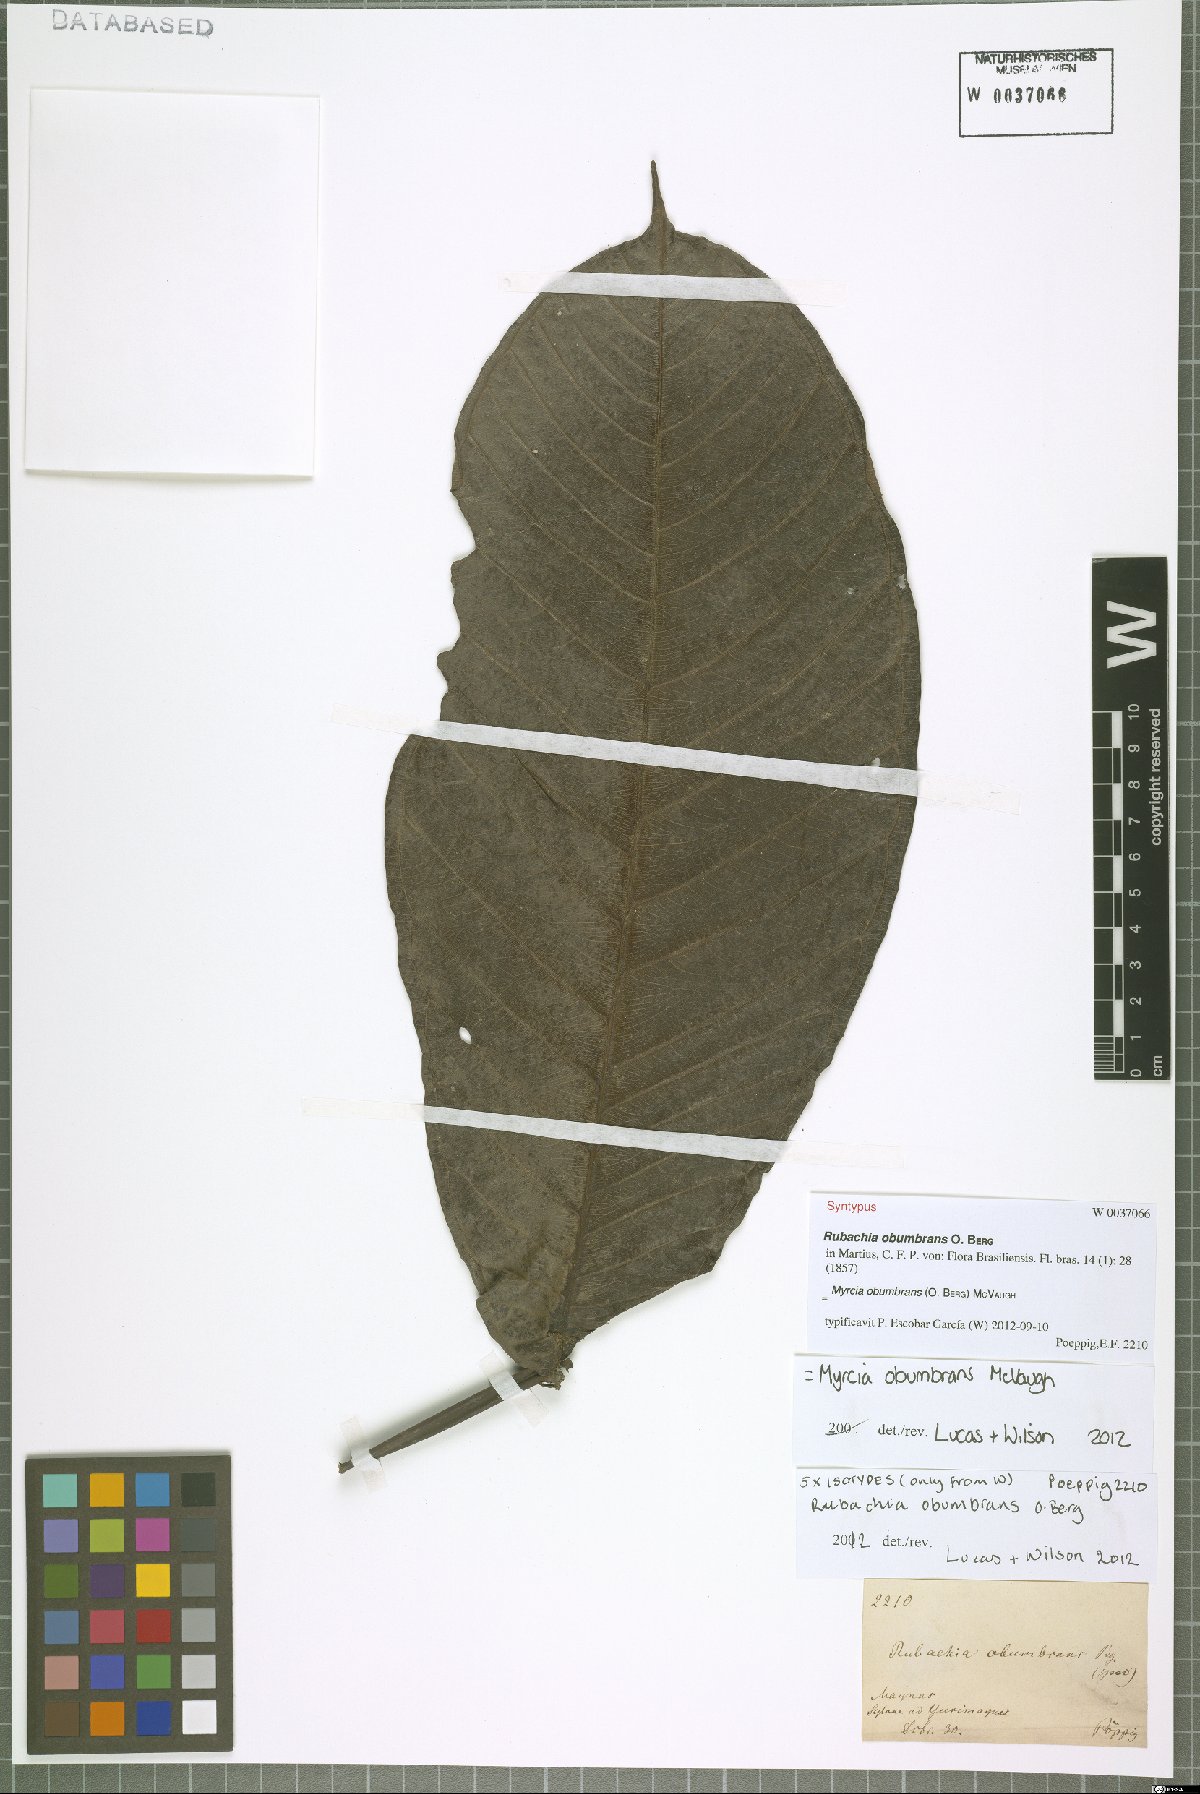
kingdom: Plantae
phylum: Tracheophyta
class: Magnoliopsida
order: Myrtales
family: Myrtaceae
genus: Myrcia
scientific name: Myrcia obumbrans
